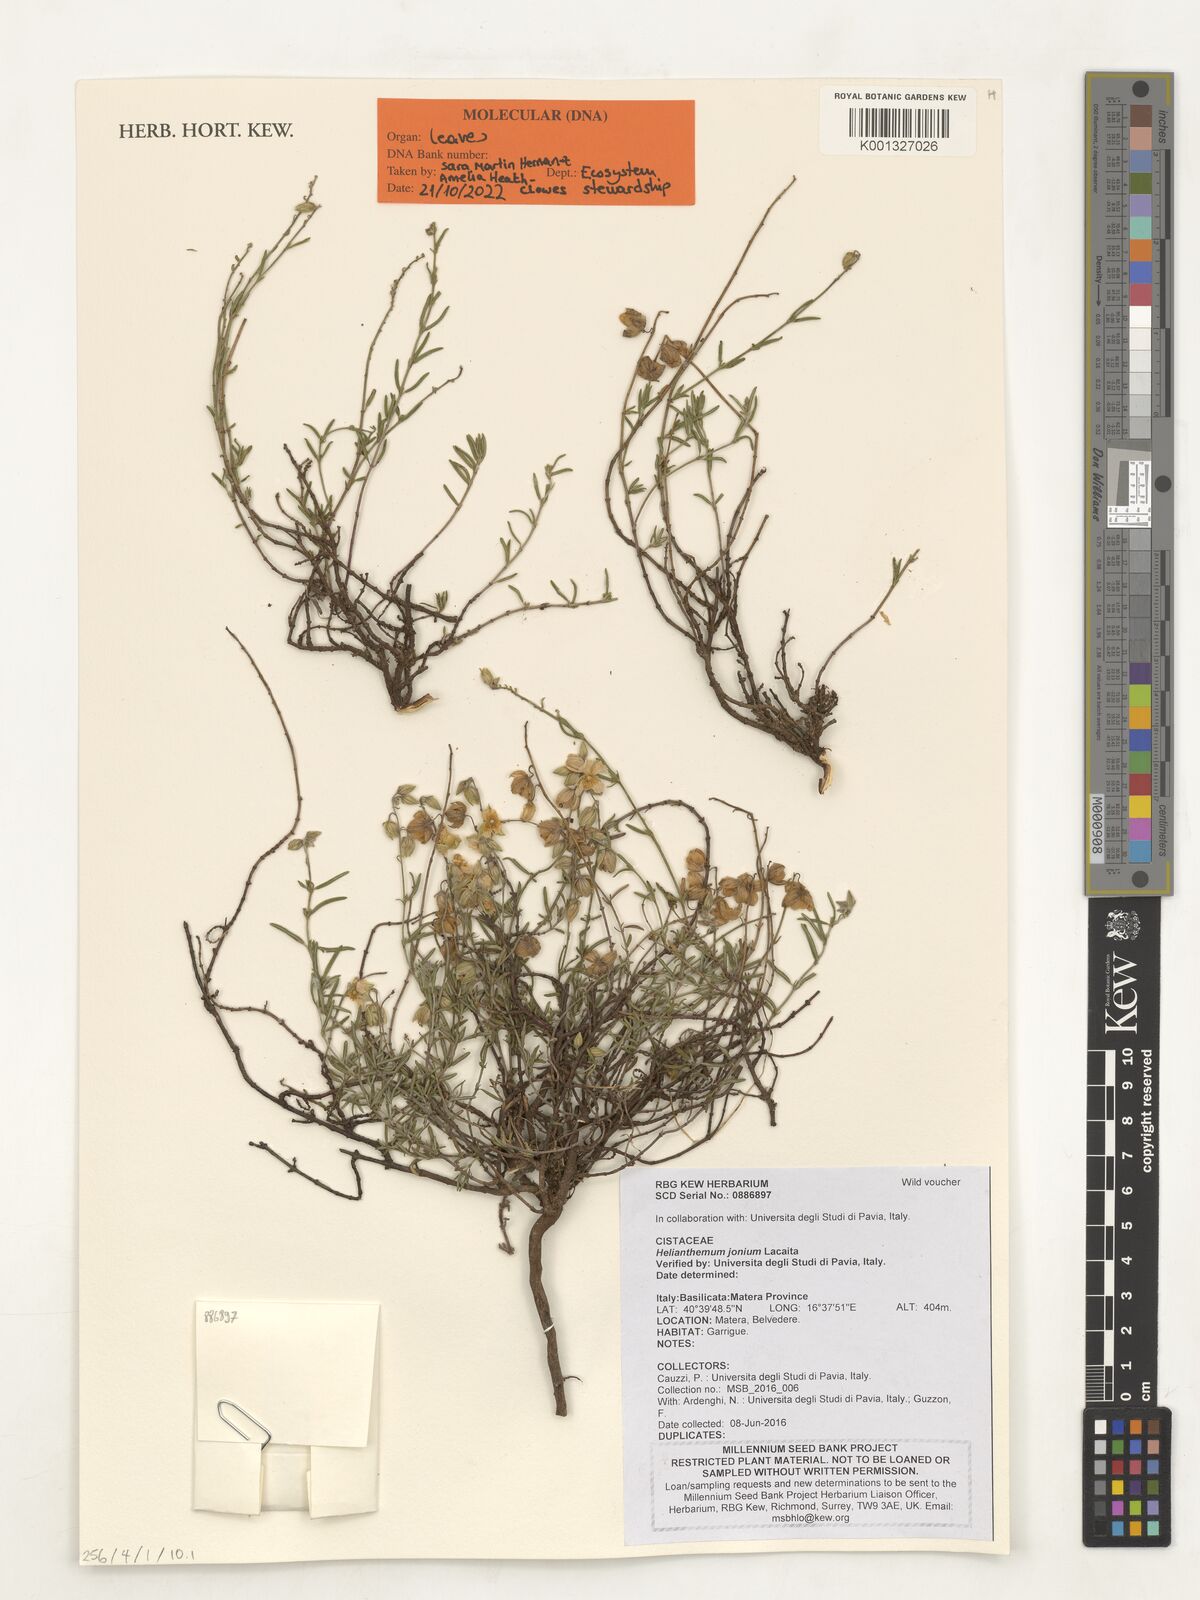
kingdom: Plantae
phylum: Tracheophyta
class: Magnoliopsida
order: Malvales
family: Cistaceae
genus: Helianthemum
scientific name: Helianthemum leptophyllum
